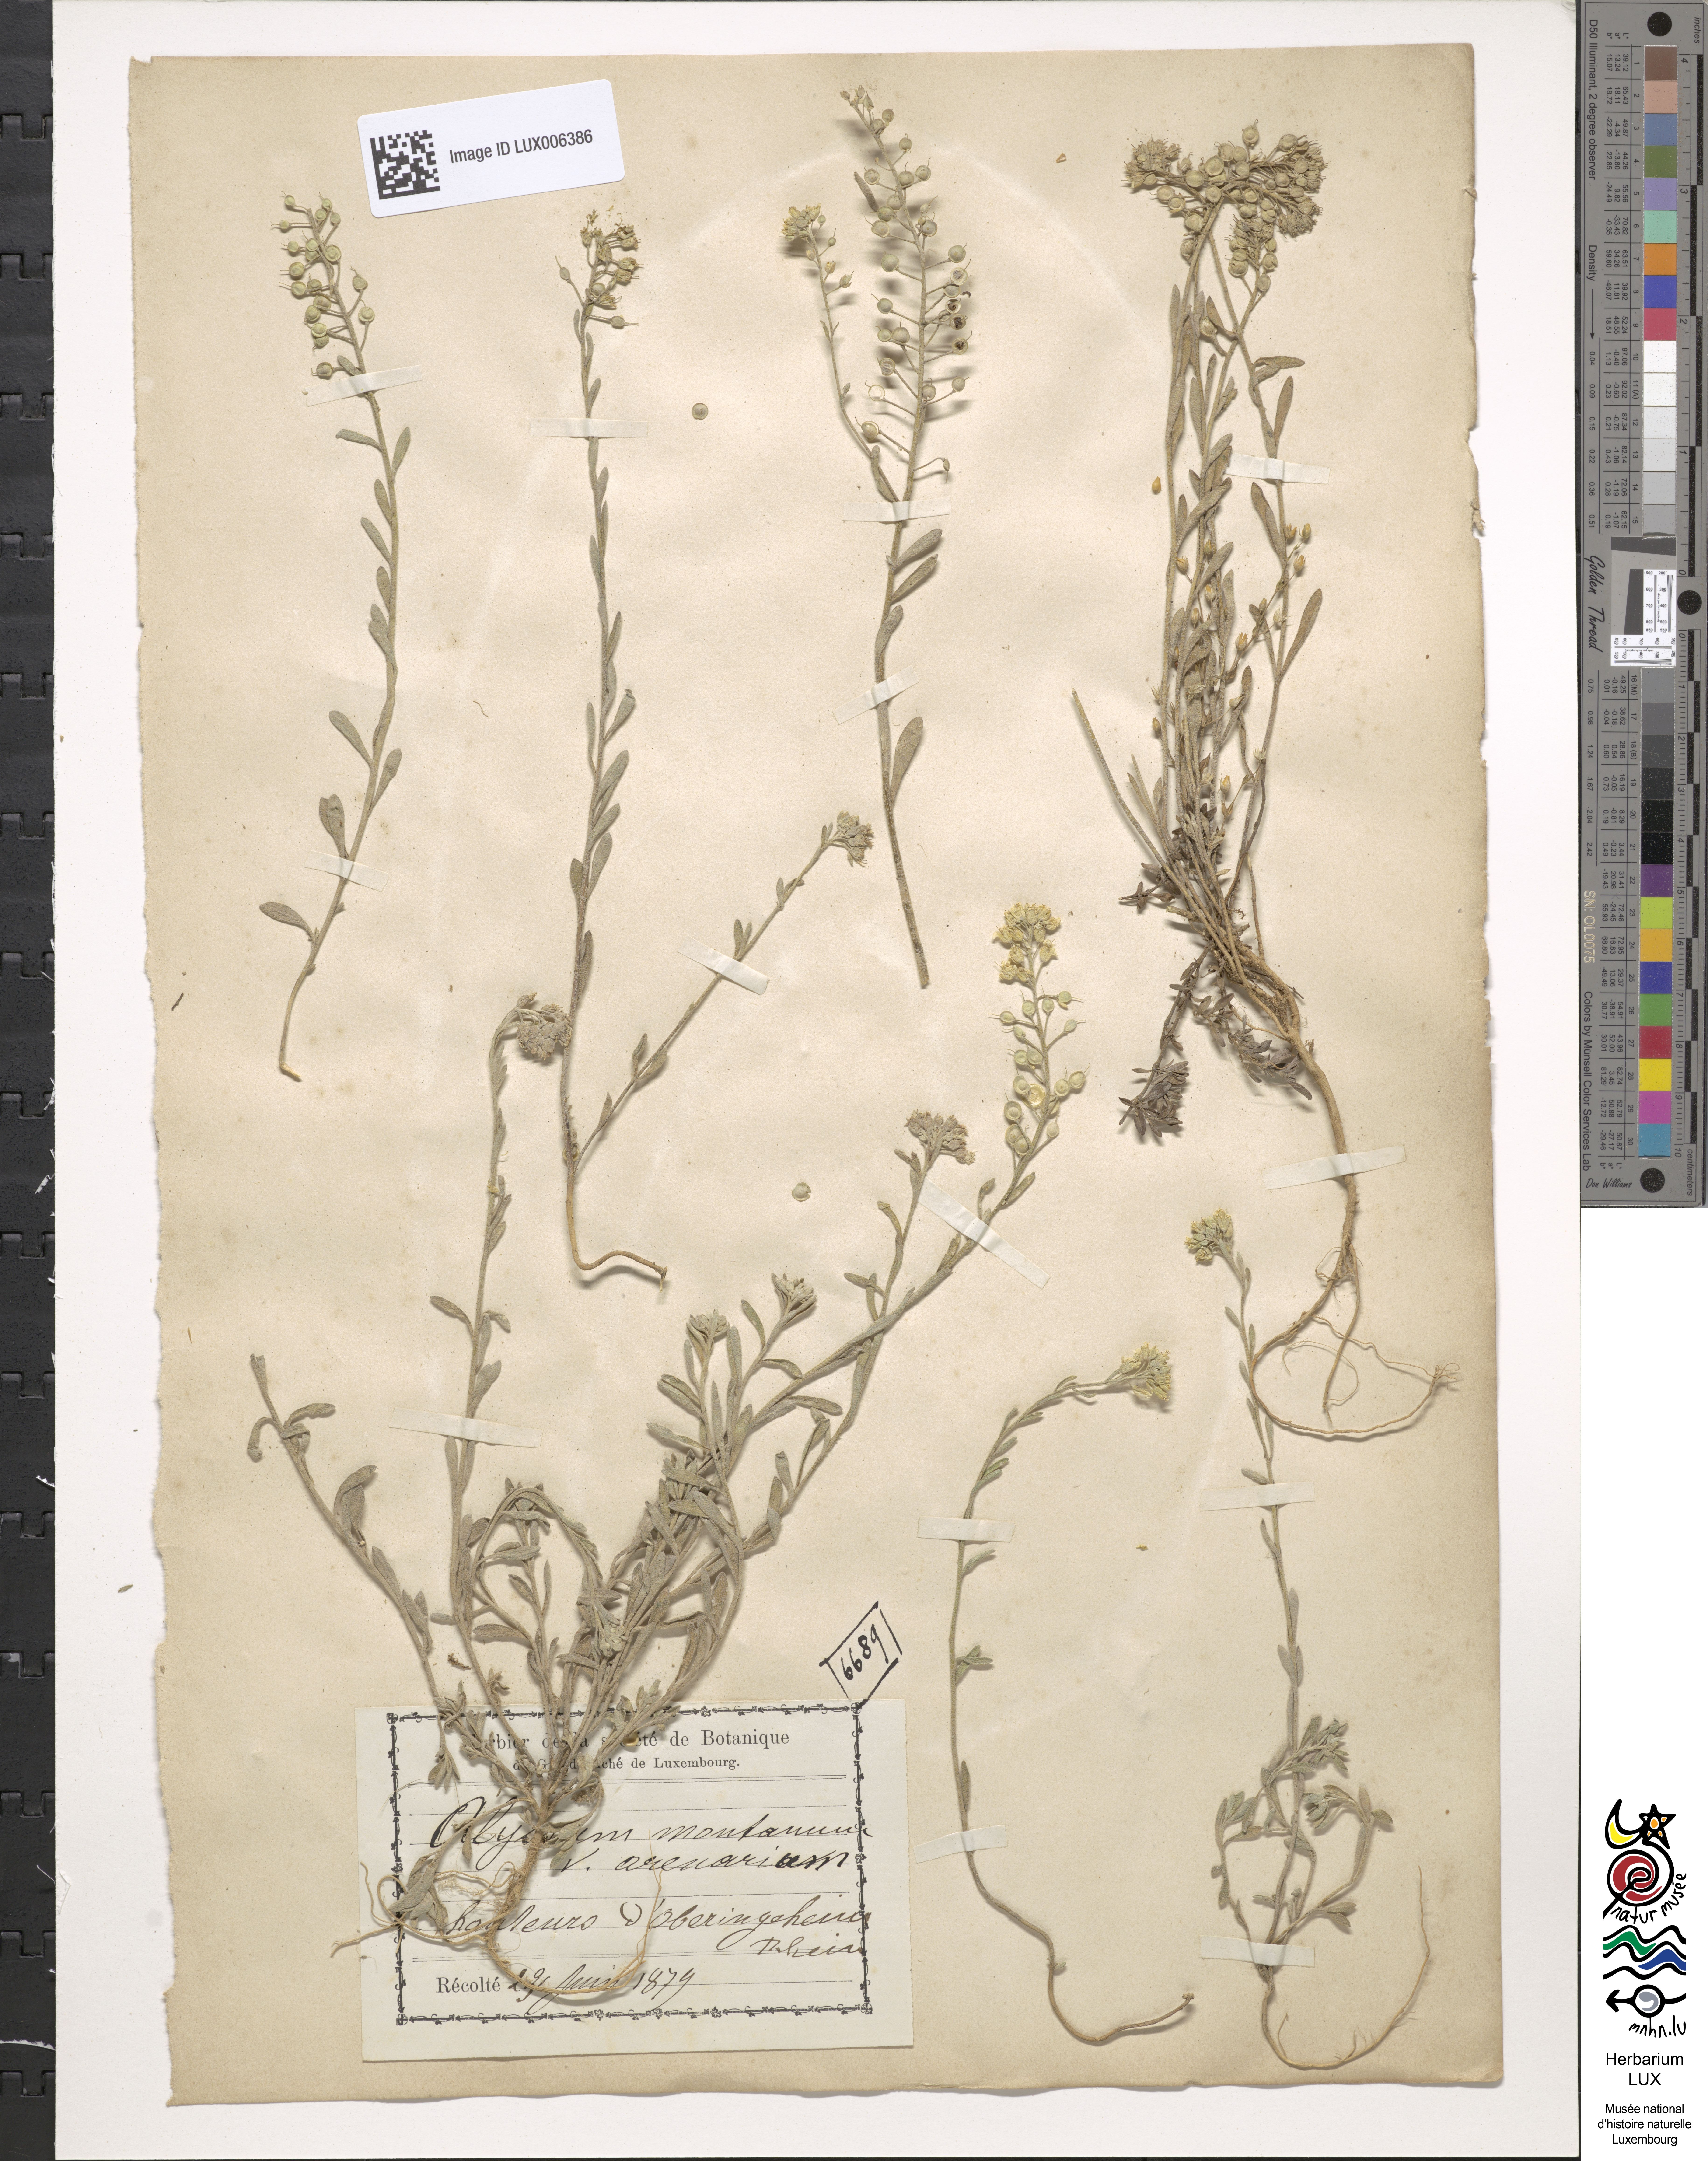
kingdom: Plantae
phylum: Tracheophyta
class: Magnoliopsida
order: Brassicales
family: Brassicaceae
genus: Alyssum
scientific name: Alyssum loiseleurii
